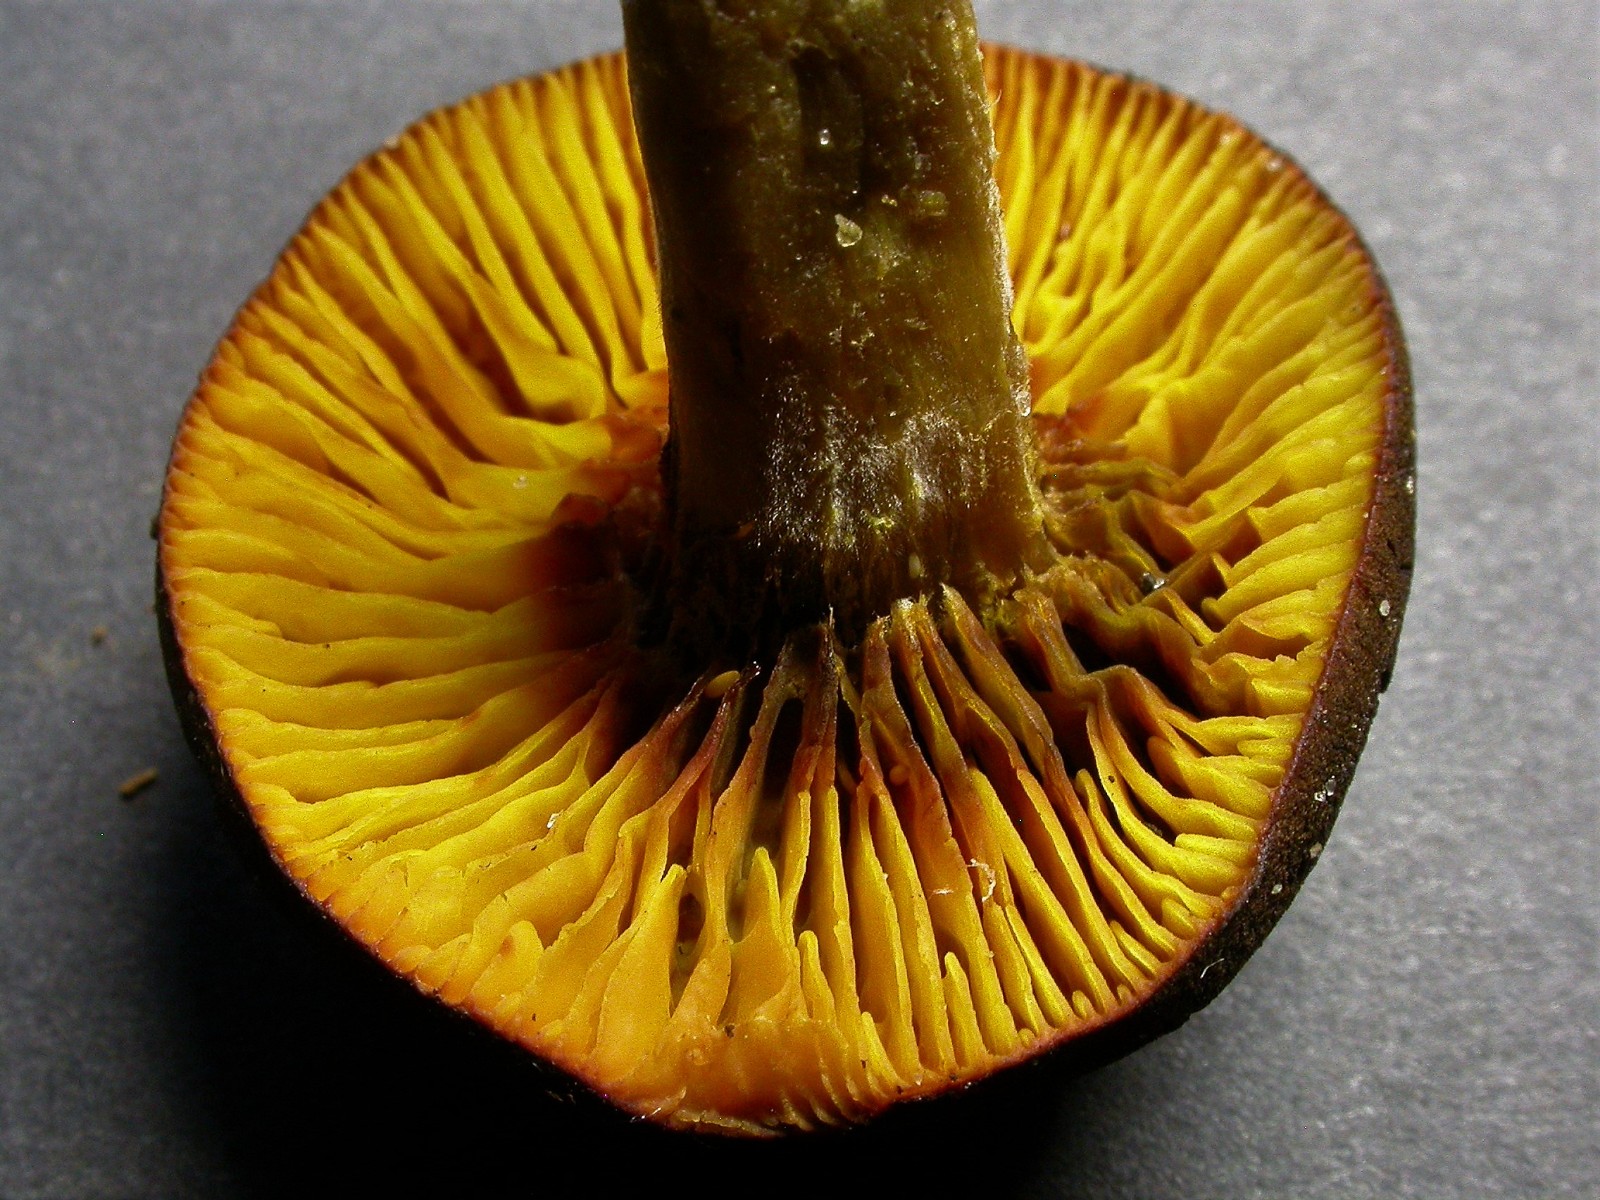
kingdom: Fungi
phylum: Basidiomycota
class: Agaricomycetes
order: Boletales
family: Boletaceae
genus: Phylloporus
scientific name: Phylloporus pelletieri
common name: lamelrørhat
